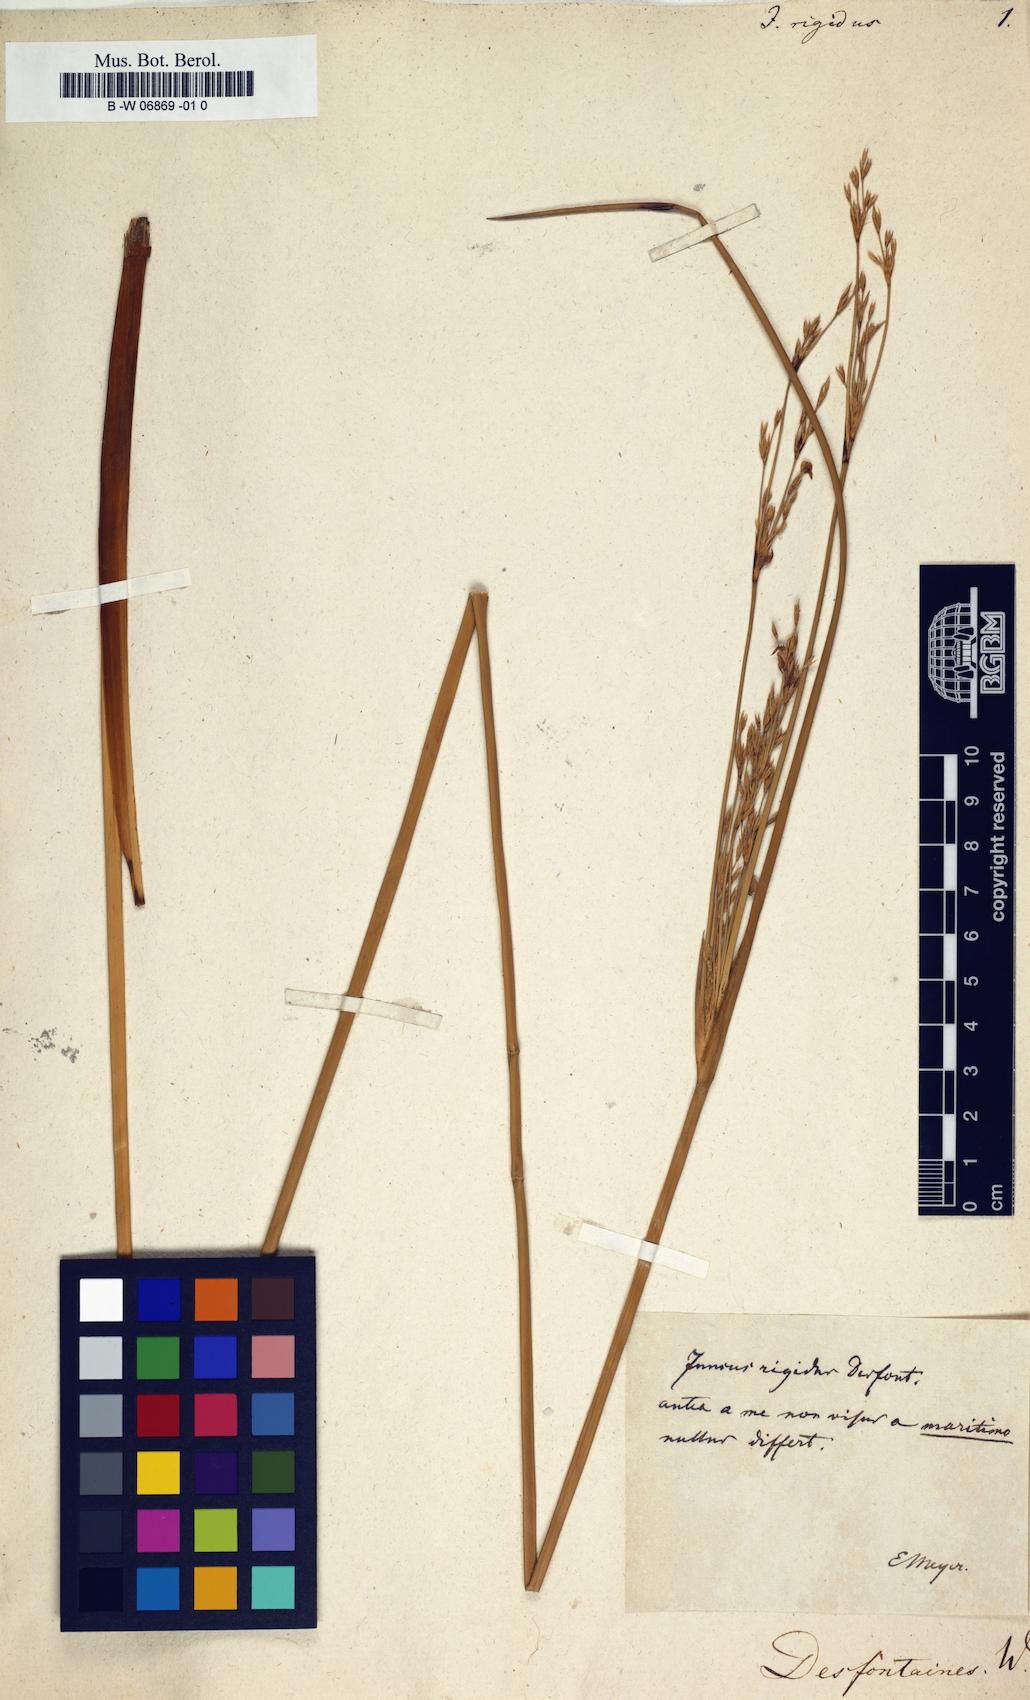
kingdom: Plantae
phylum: Tracheophyta
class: Liliopsida
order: Poales
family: Juncaceae
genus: Juncus
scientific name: Juncus rigidus
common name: Hard sea rush
